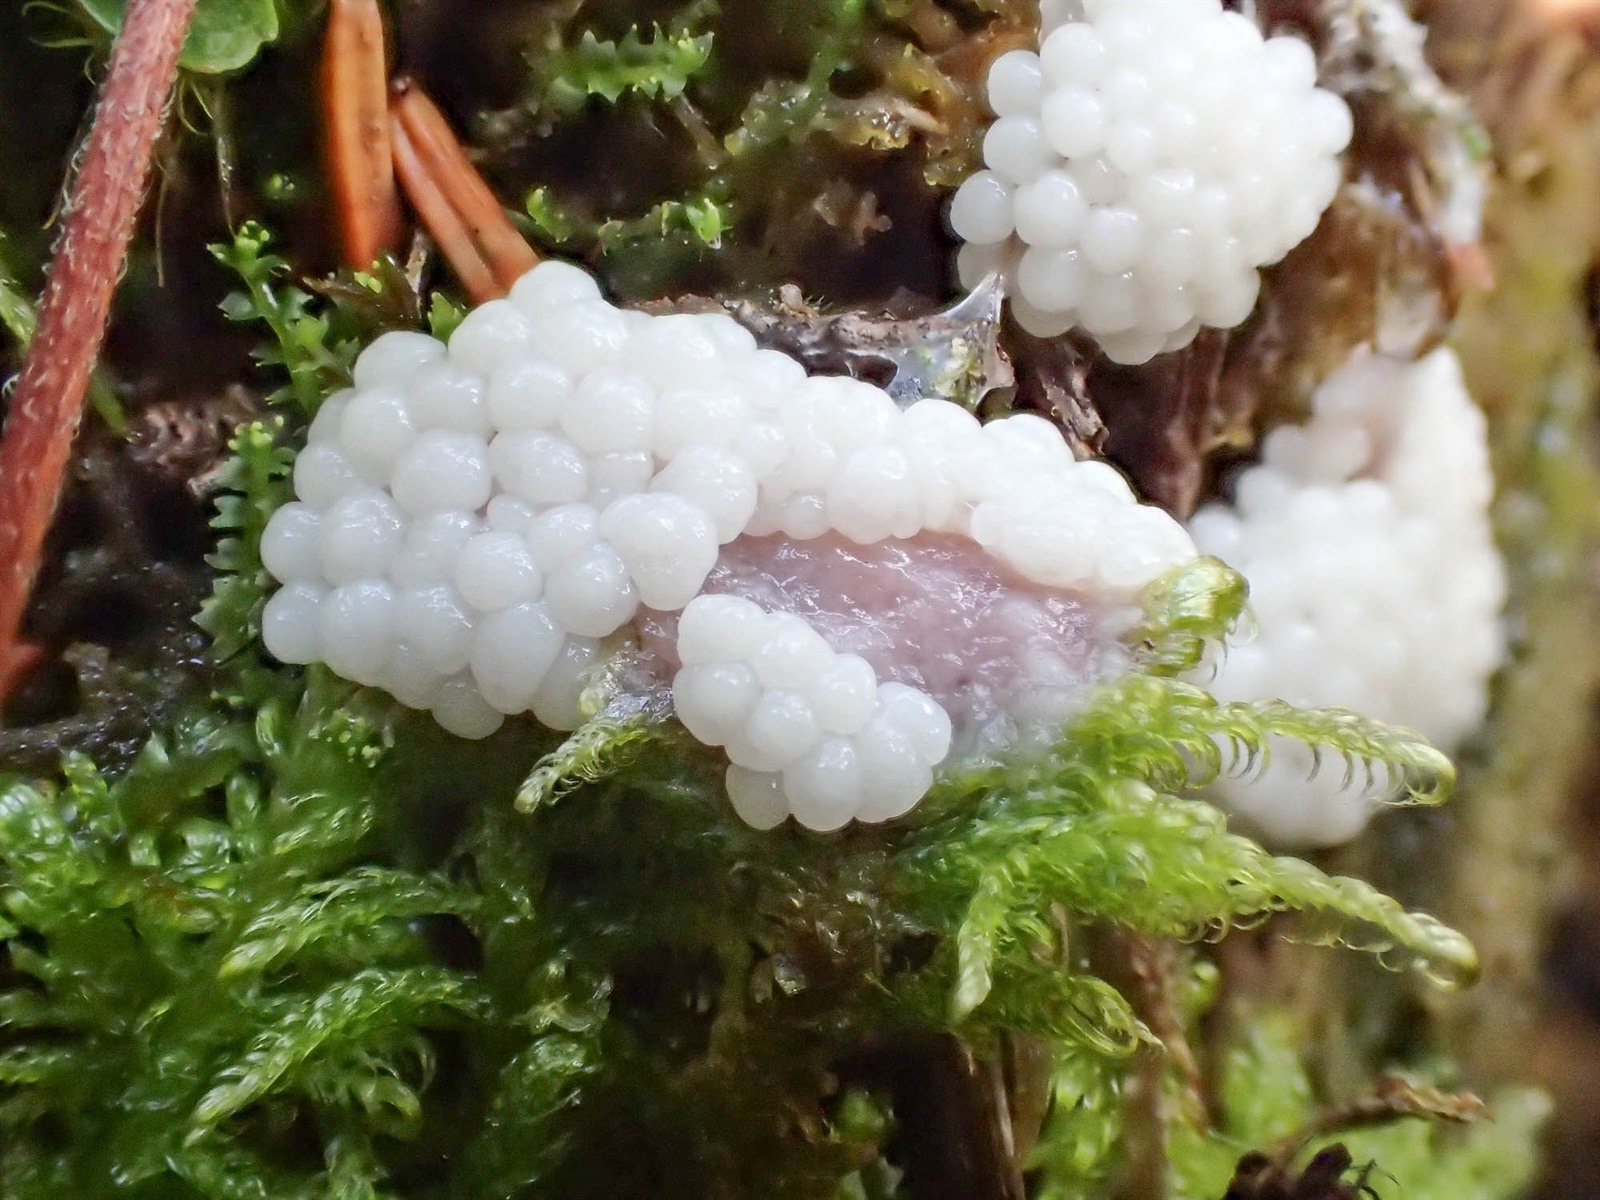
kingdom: Protozoa
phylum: Mycetozoa
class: Myxomycetes
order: Stemonitidales
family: Stemonitidaceae
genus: Comatricha
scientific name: Comatricha reticulospora
